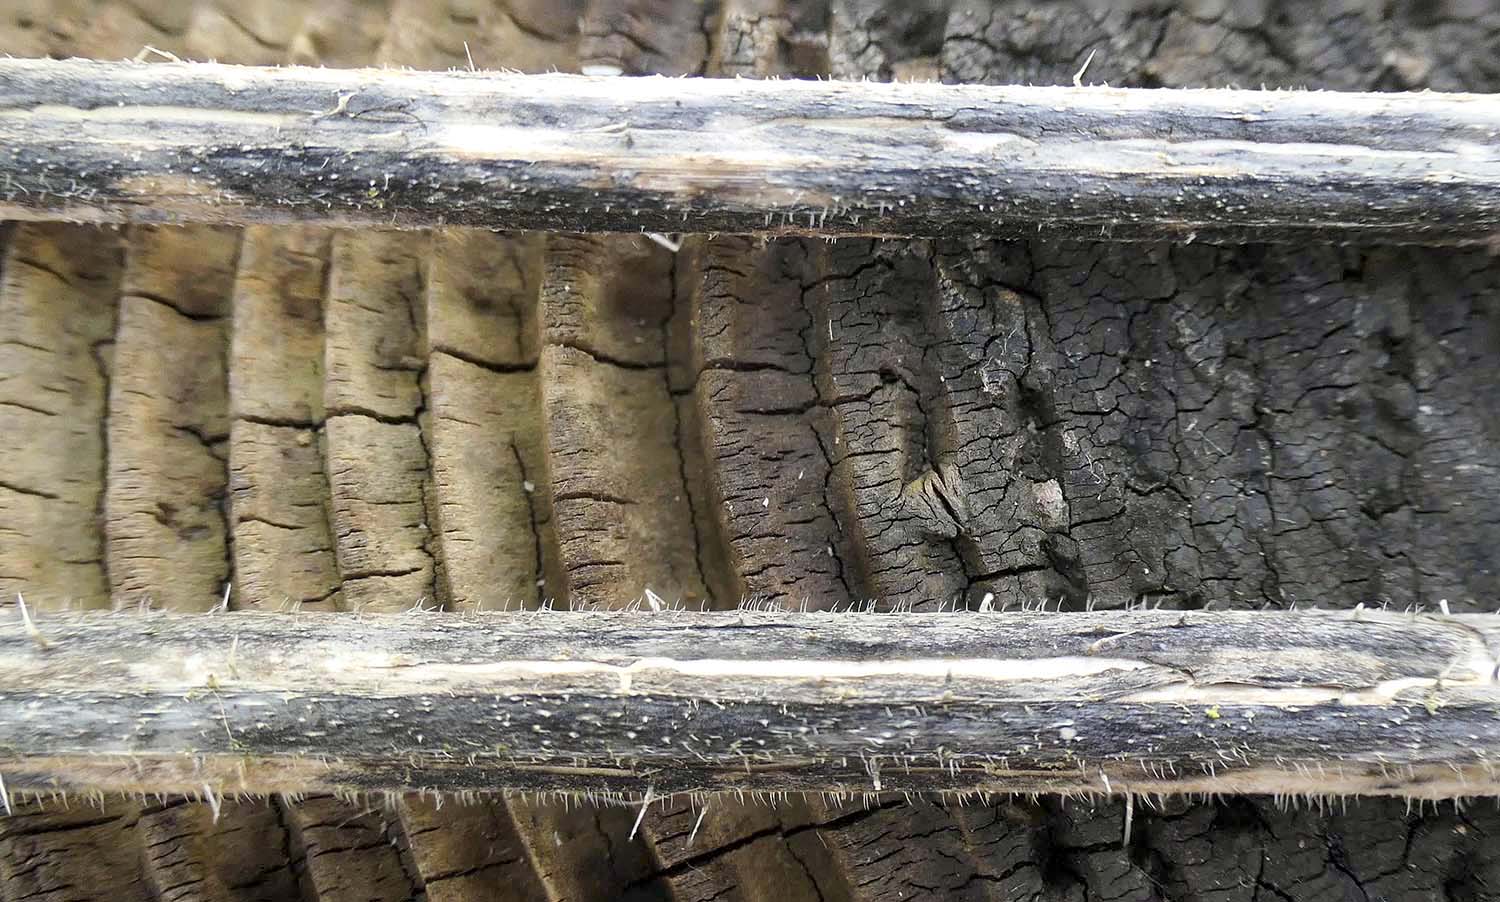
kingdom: Fungi
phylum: Ascomycota
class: Sordariomycetes
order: Diaporthales
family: Diaporthaceae
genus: Diaporthopsis
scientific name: Diaporthopsis urticae
